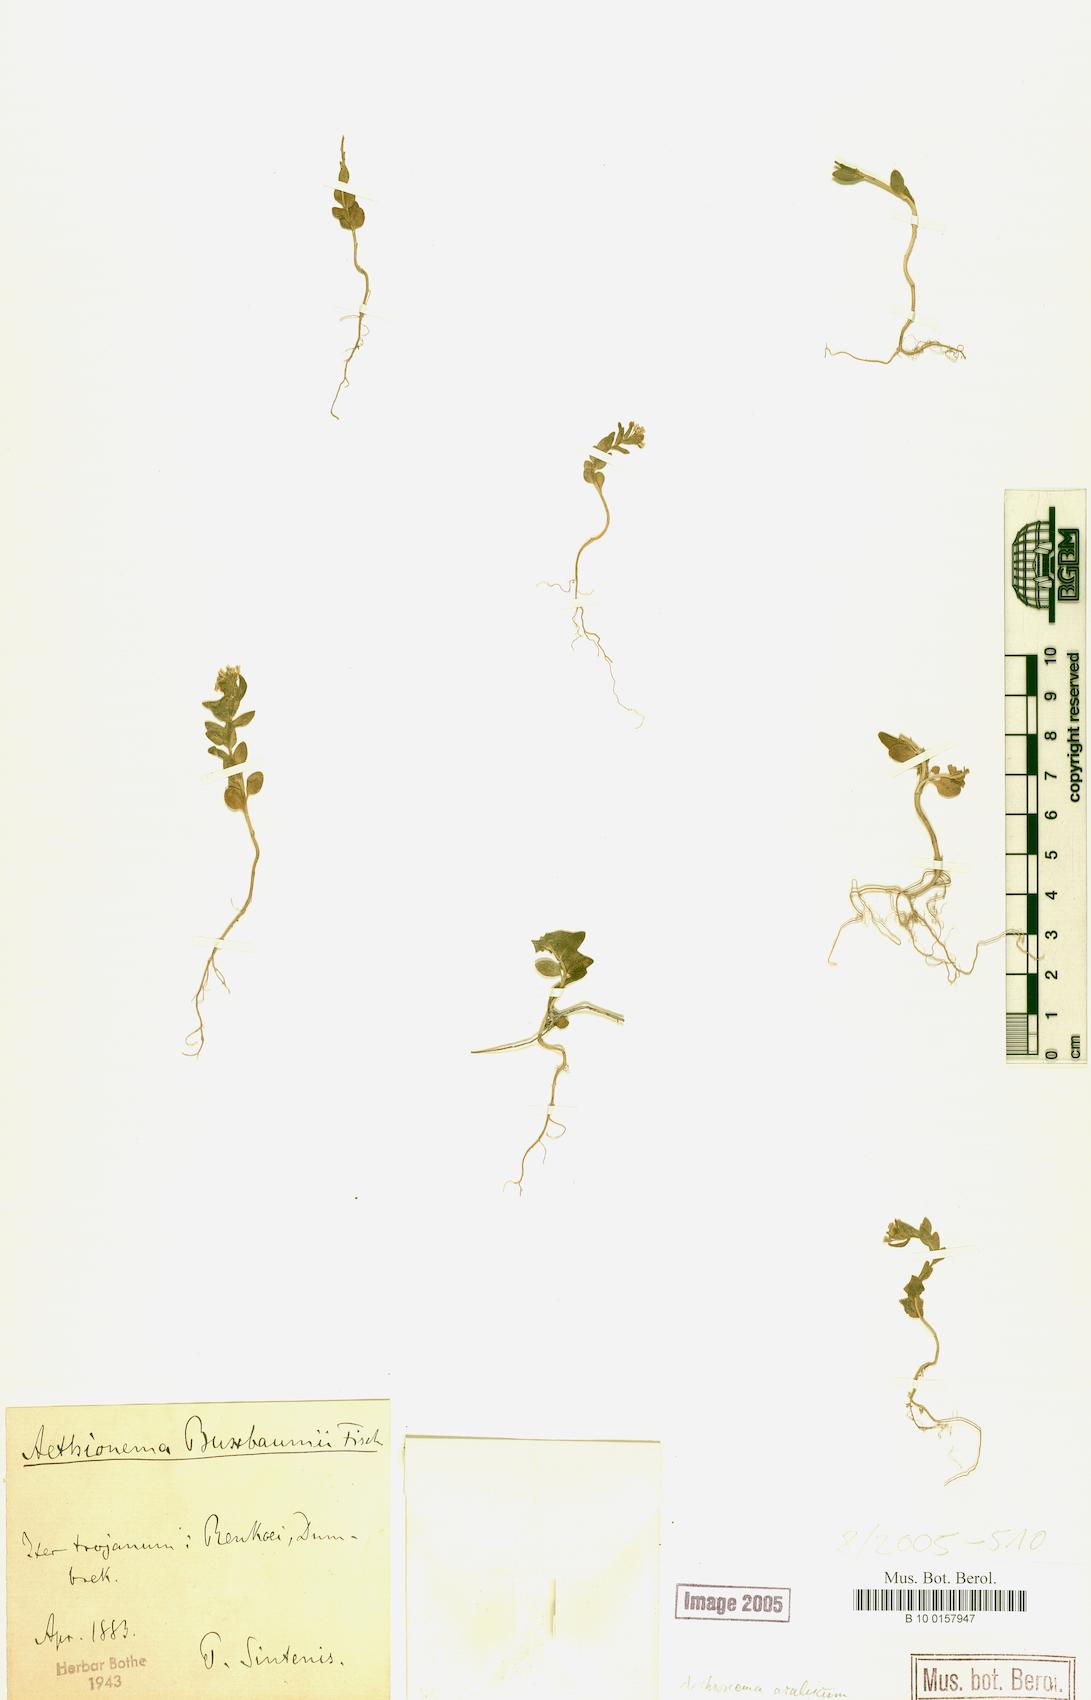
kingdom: Plantae
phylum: Tracheophyta
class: Magnoliopsida
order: Brassicales
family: Brassicaceae
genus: Aethionema
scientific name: Aethionema arabicum
